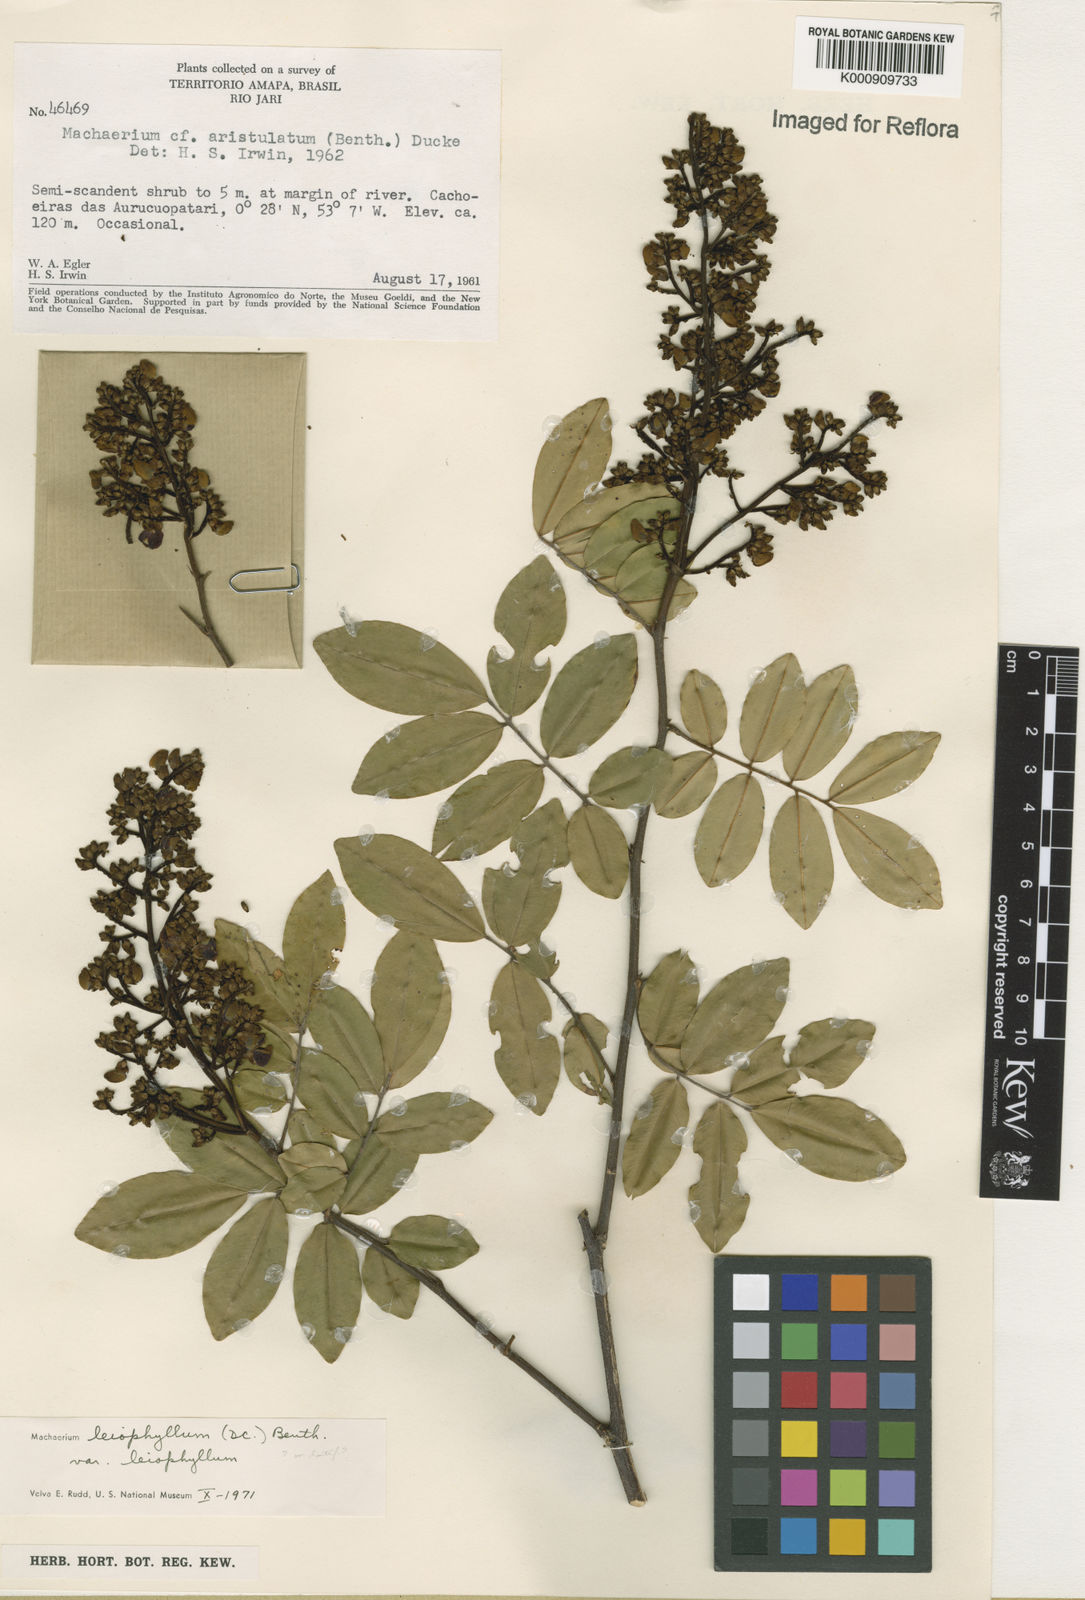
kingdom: Plantae
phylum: Tracheophyta
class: Magnoliopsida
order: Fabales
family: Fabaceae
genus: Machaerium
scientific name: Machaerium leiophyllum
